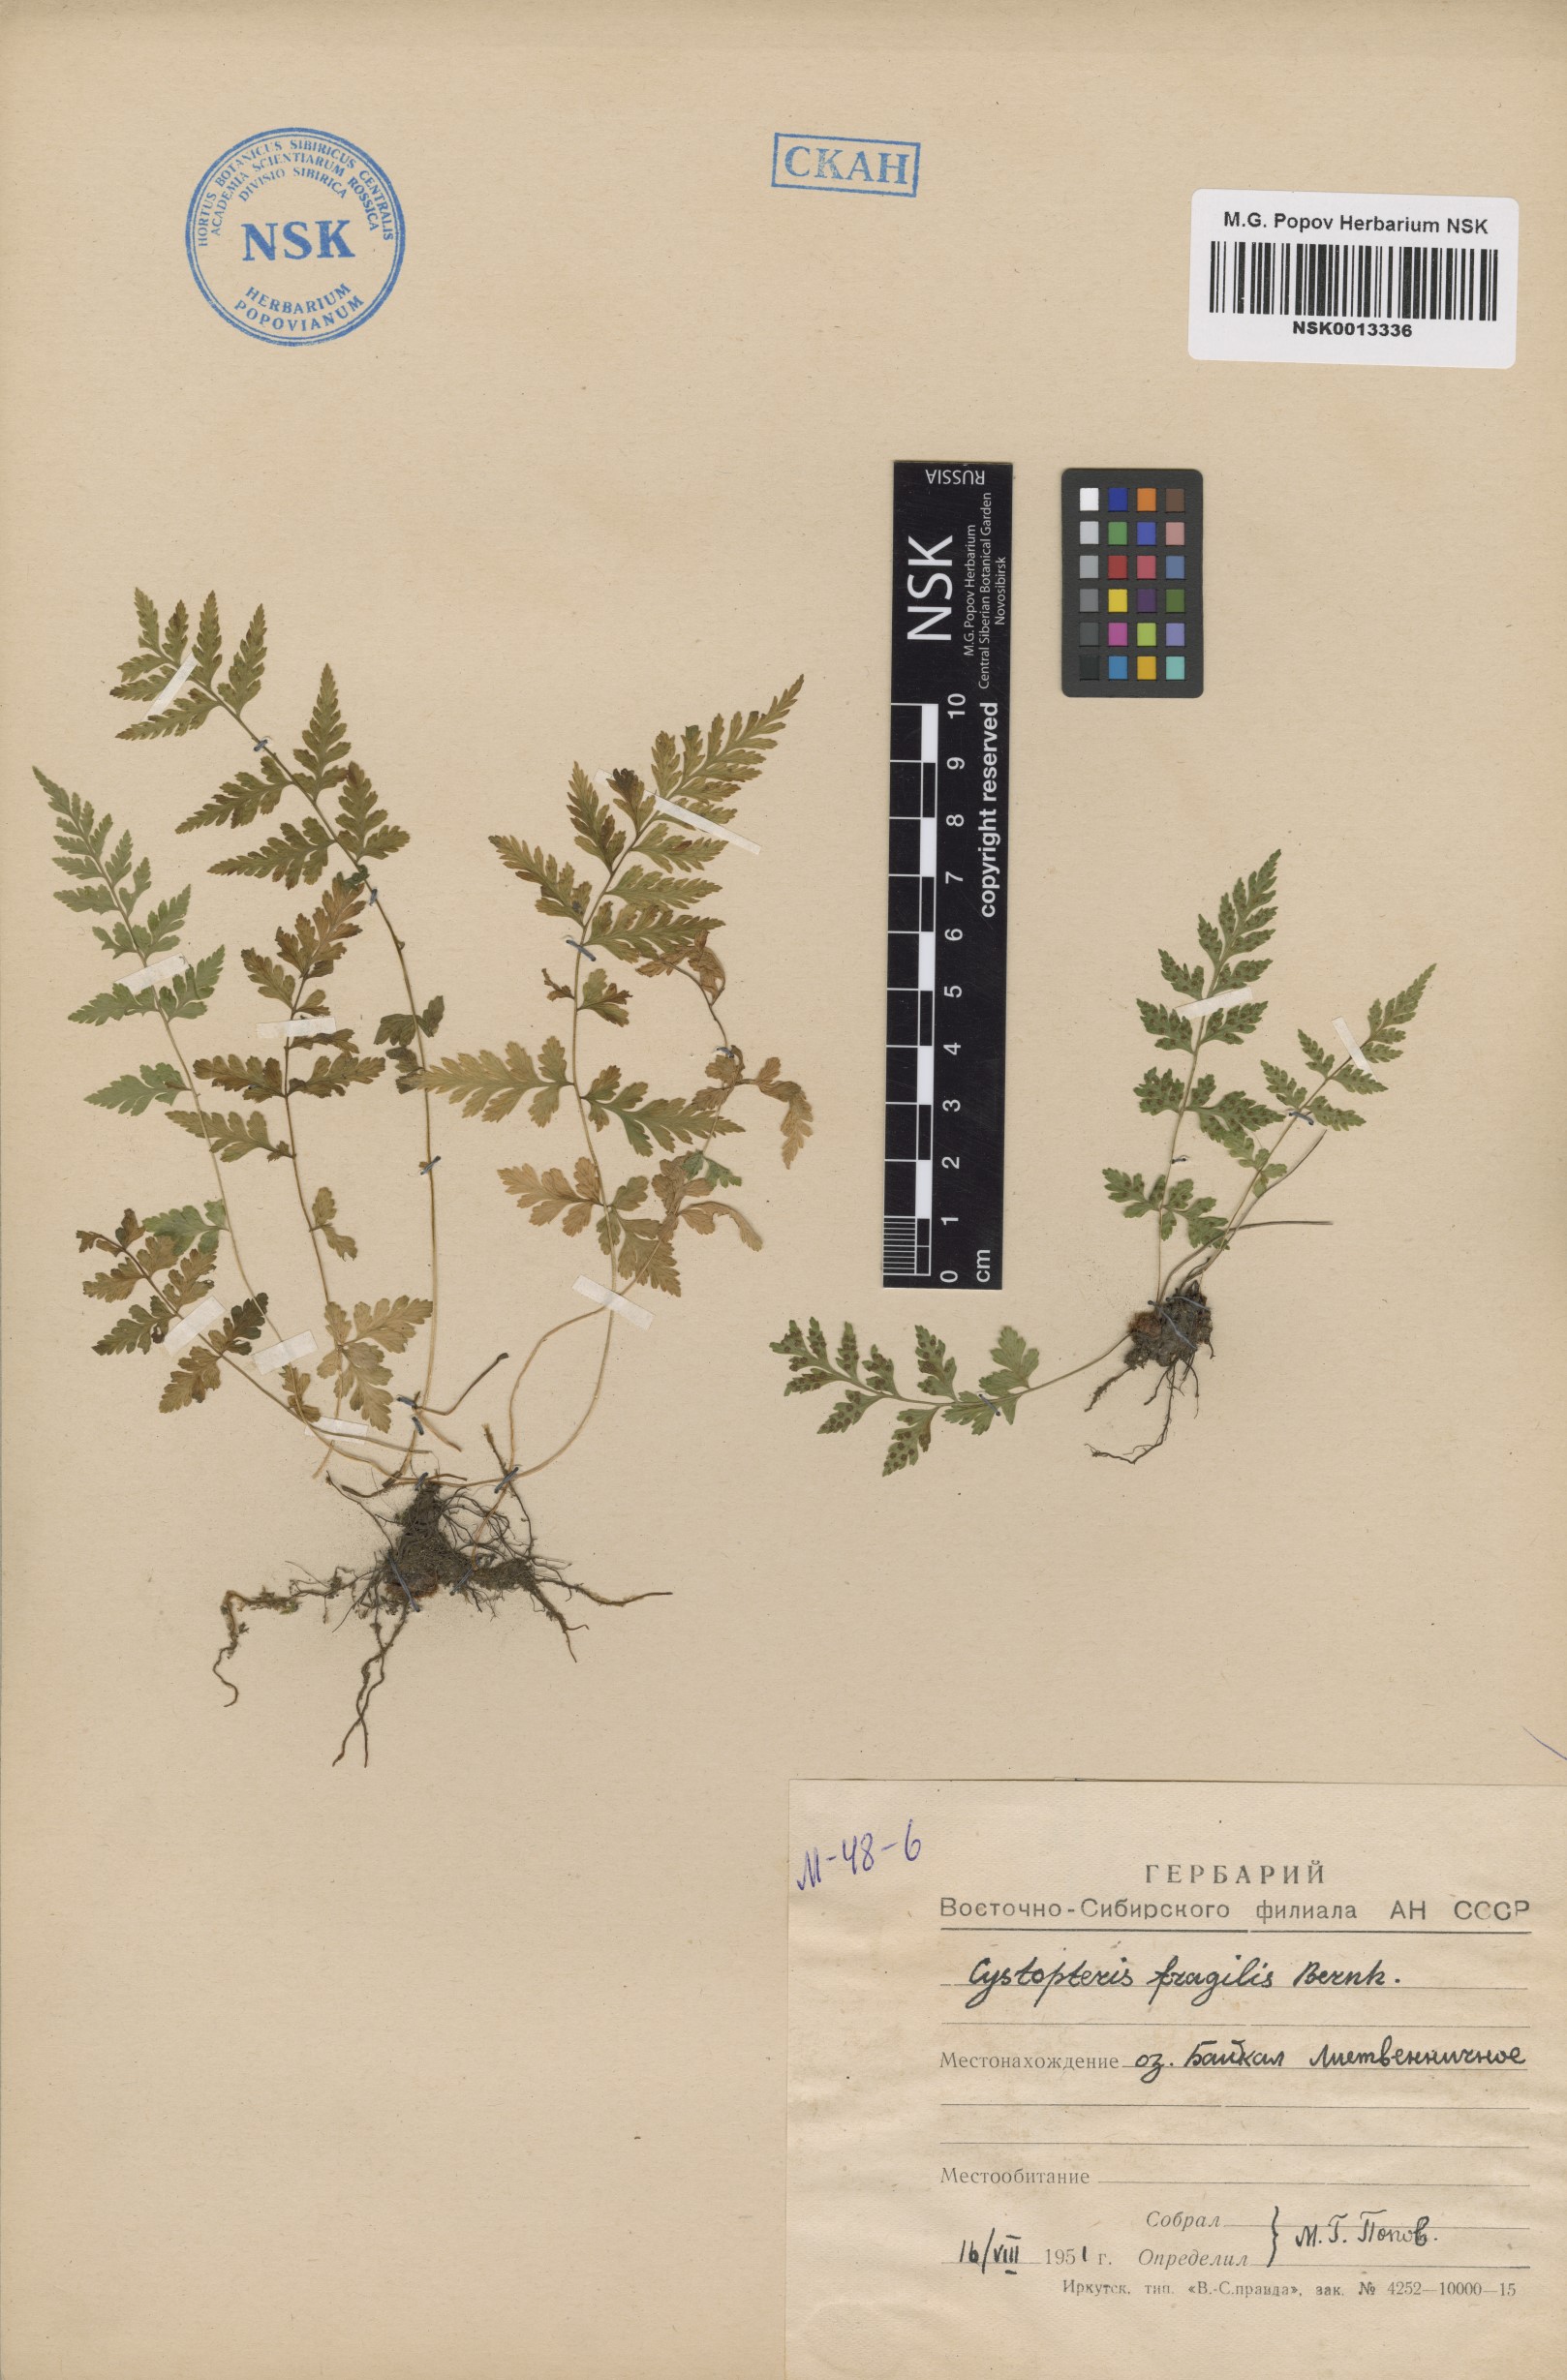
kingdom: Plantae
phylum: Tracheophyta
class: Polypodiopsida
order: Polypodiales
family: Cystopteridaceae
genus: Cystopteris
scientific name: Cystopteris fragilis
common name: Brittle bladder fern
